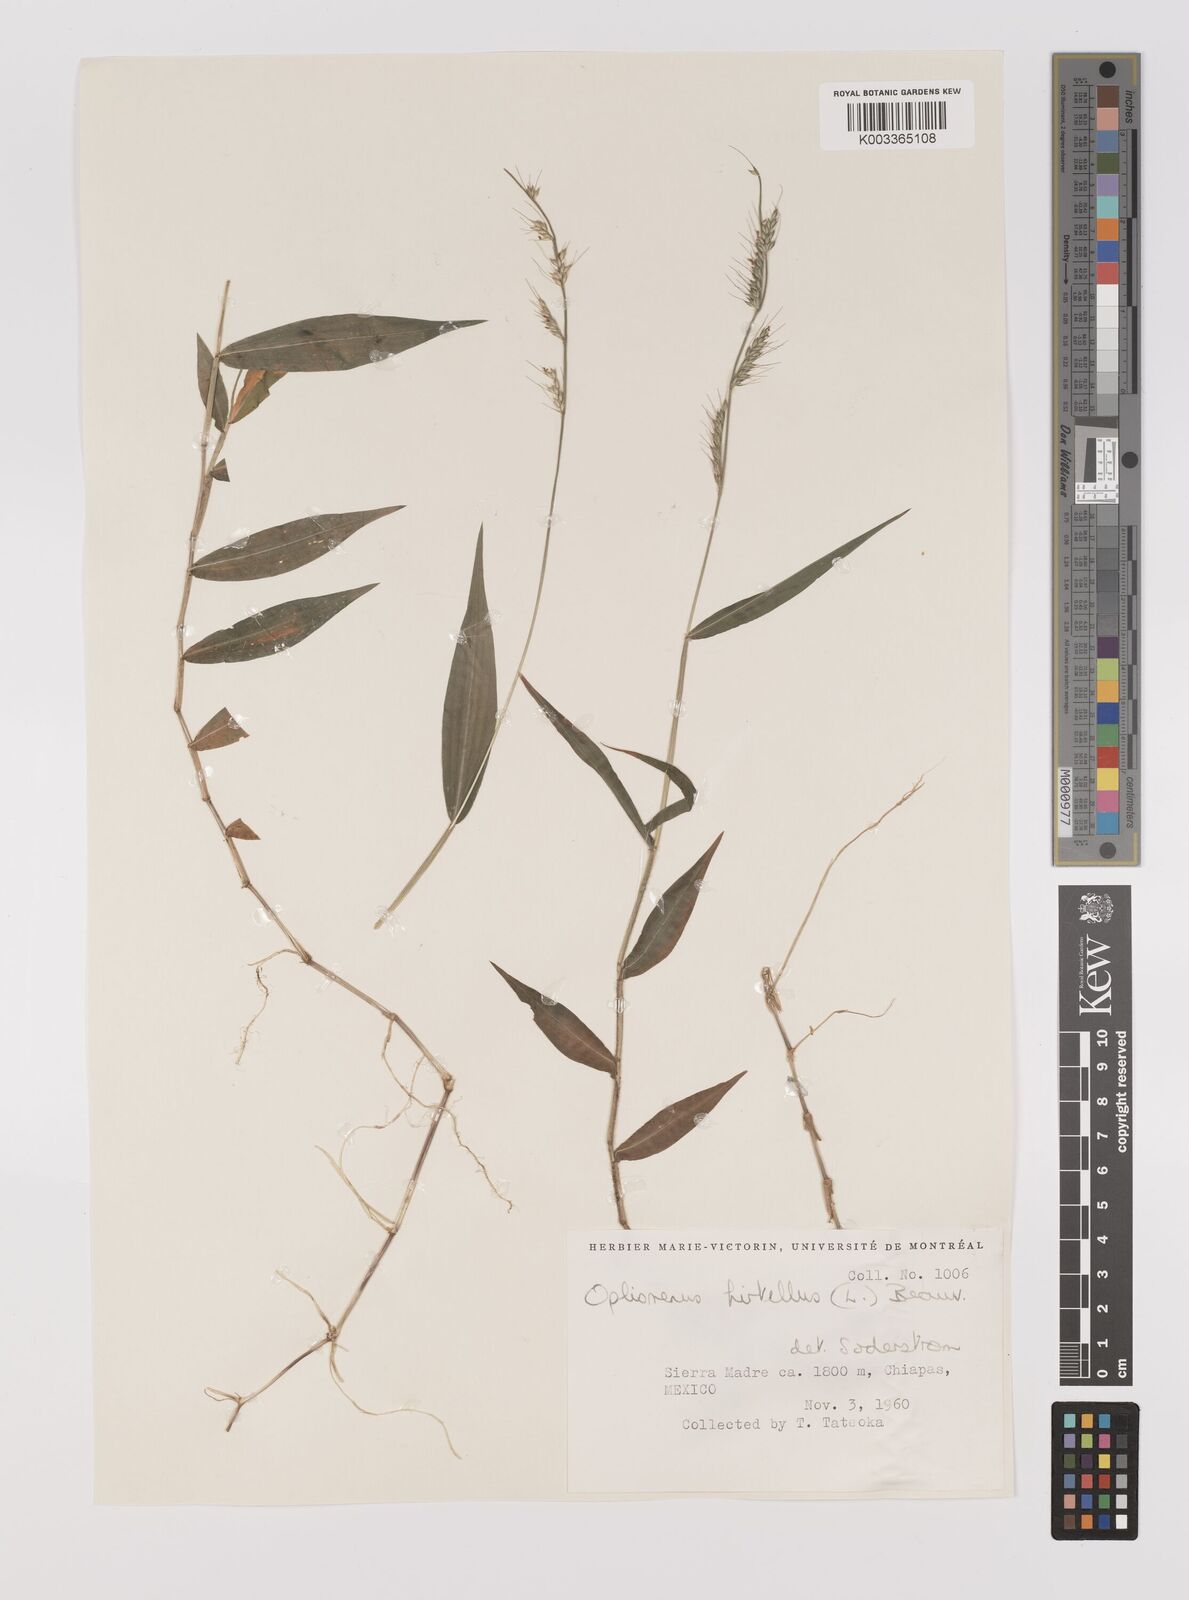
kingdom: Plantae
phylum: Tracheophyta
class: Liliopsida
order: Poales
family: Poaceae
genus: Oplismenus
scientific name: Oplismenus hirtellus
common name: Basketgrass
